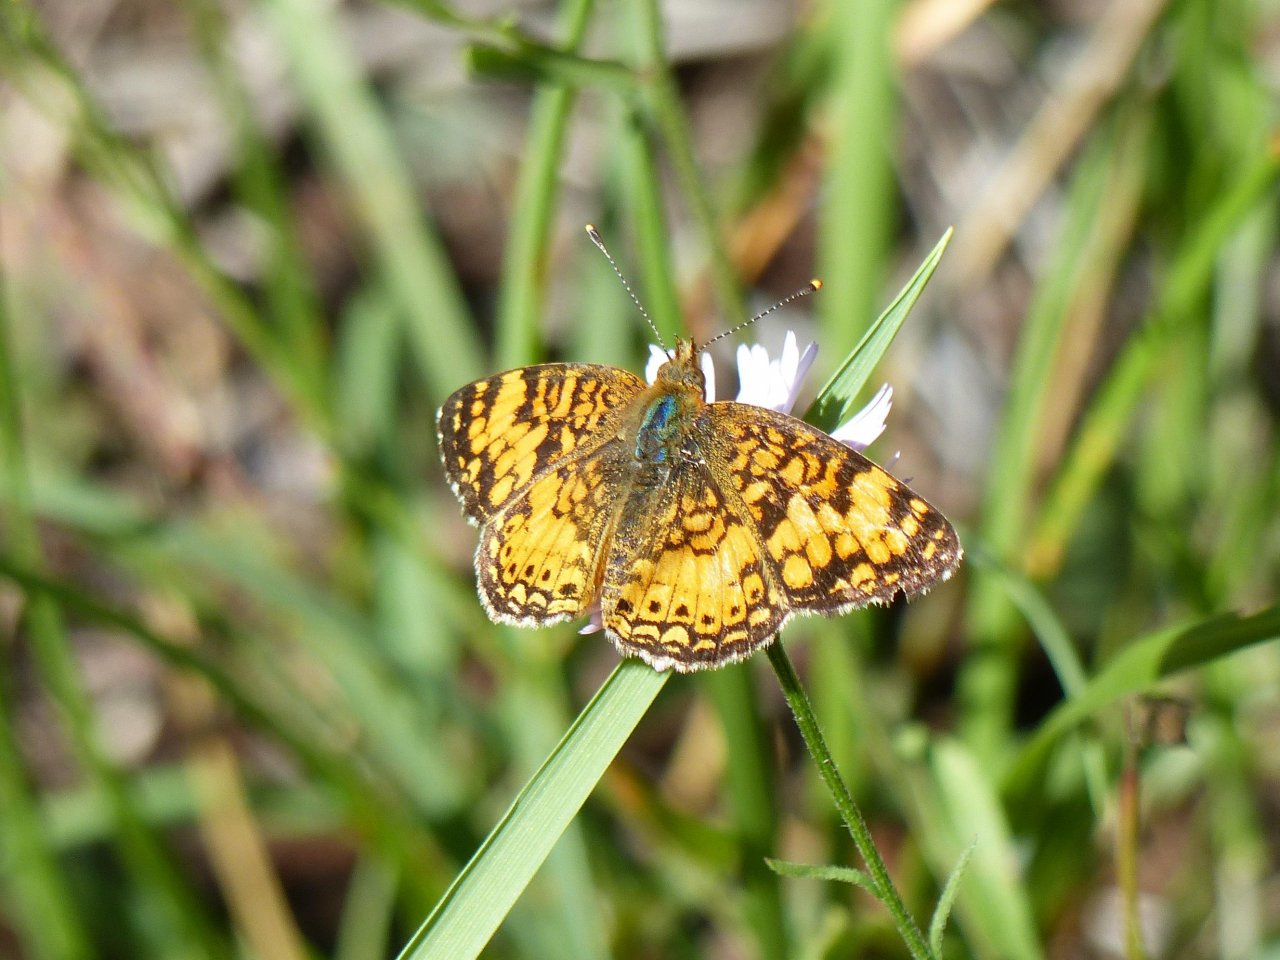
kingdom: Animalia
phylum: Arthropoda
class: Insecta
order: Lepidoptera
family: Nymphalidae
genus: Eresia
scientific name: Eresia aveyrona
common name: Mylitta Crescent
